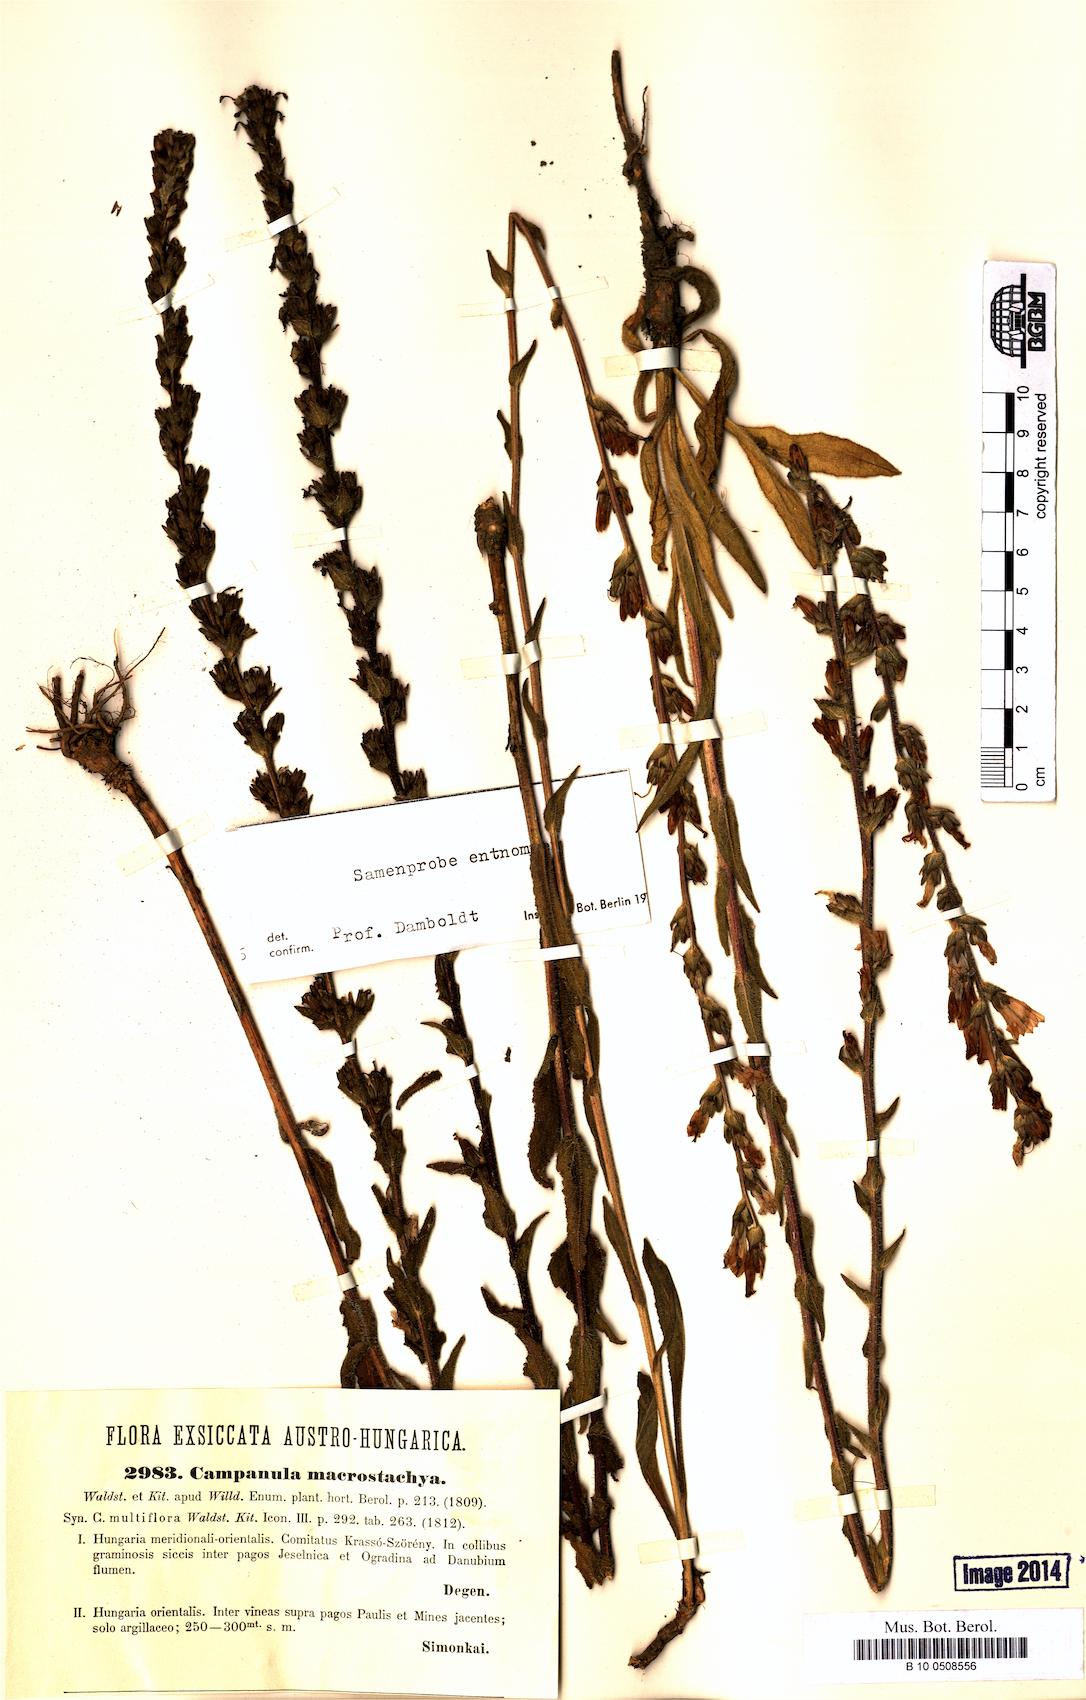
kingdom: Plantae
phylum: Tracheophyta
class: Magnoliopsida
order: Asterales
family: Campanulaceae
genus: Campanula
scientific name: Campanula macrostachya
